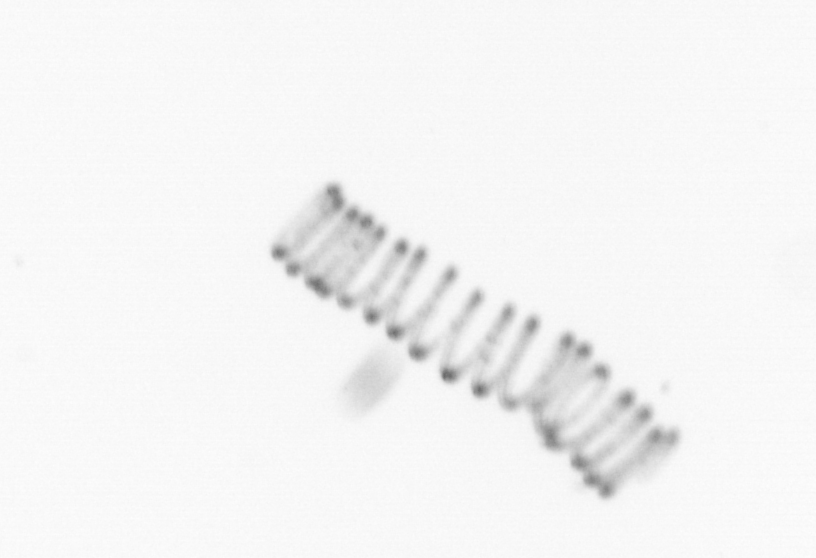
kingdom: Chromista
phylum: Ochrophyta
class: Bacillariophyceae
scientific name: Bacillariophyceae
